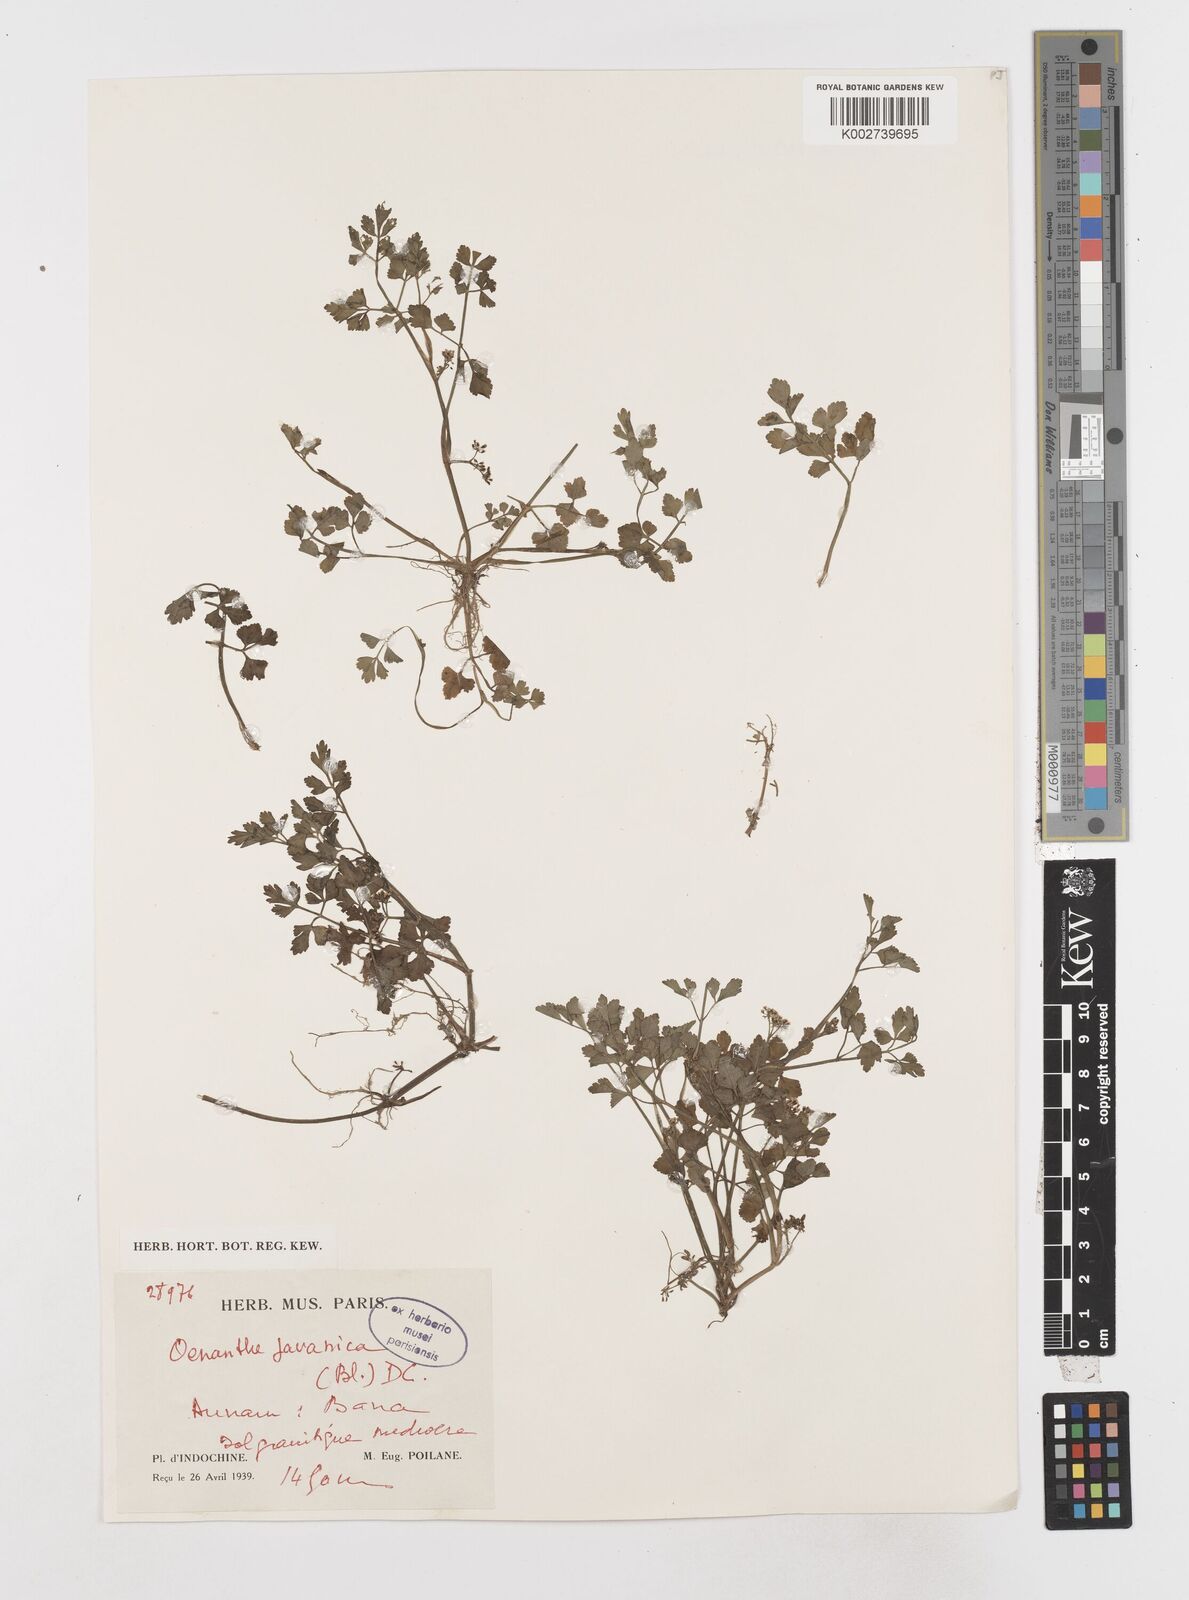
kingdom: Plantae
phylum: Tracheophyta
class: Magnoliopsida
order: Apiales
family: Apiaceae
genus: Oenanthe
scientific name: Oenanthe javanica
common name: Java water-dropwort
